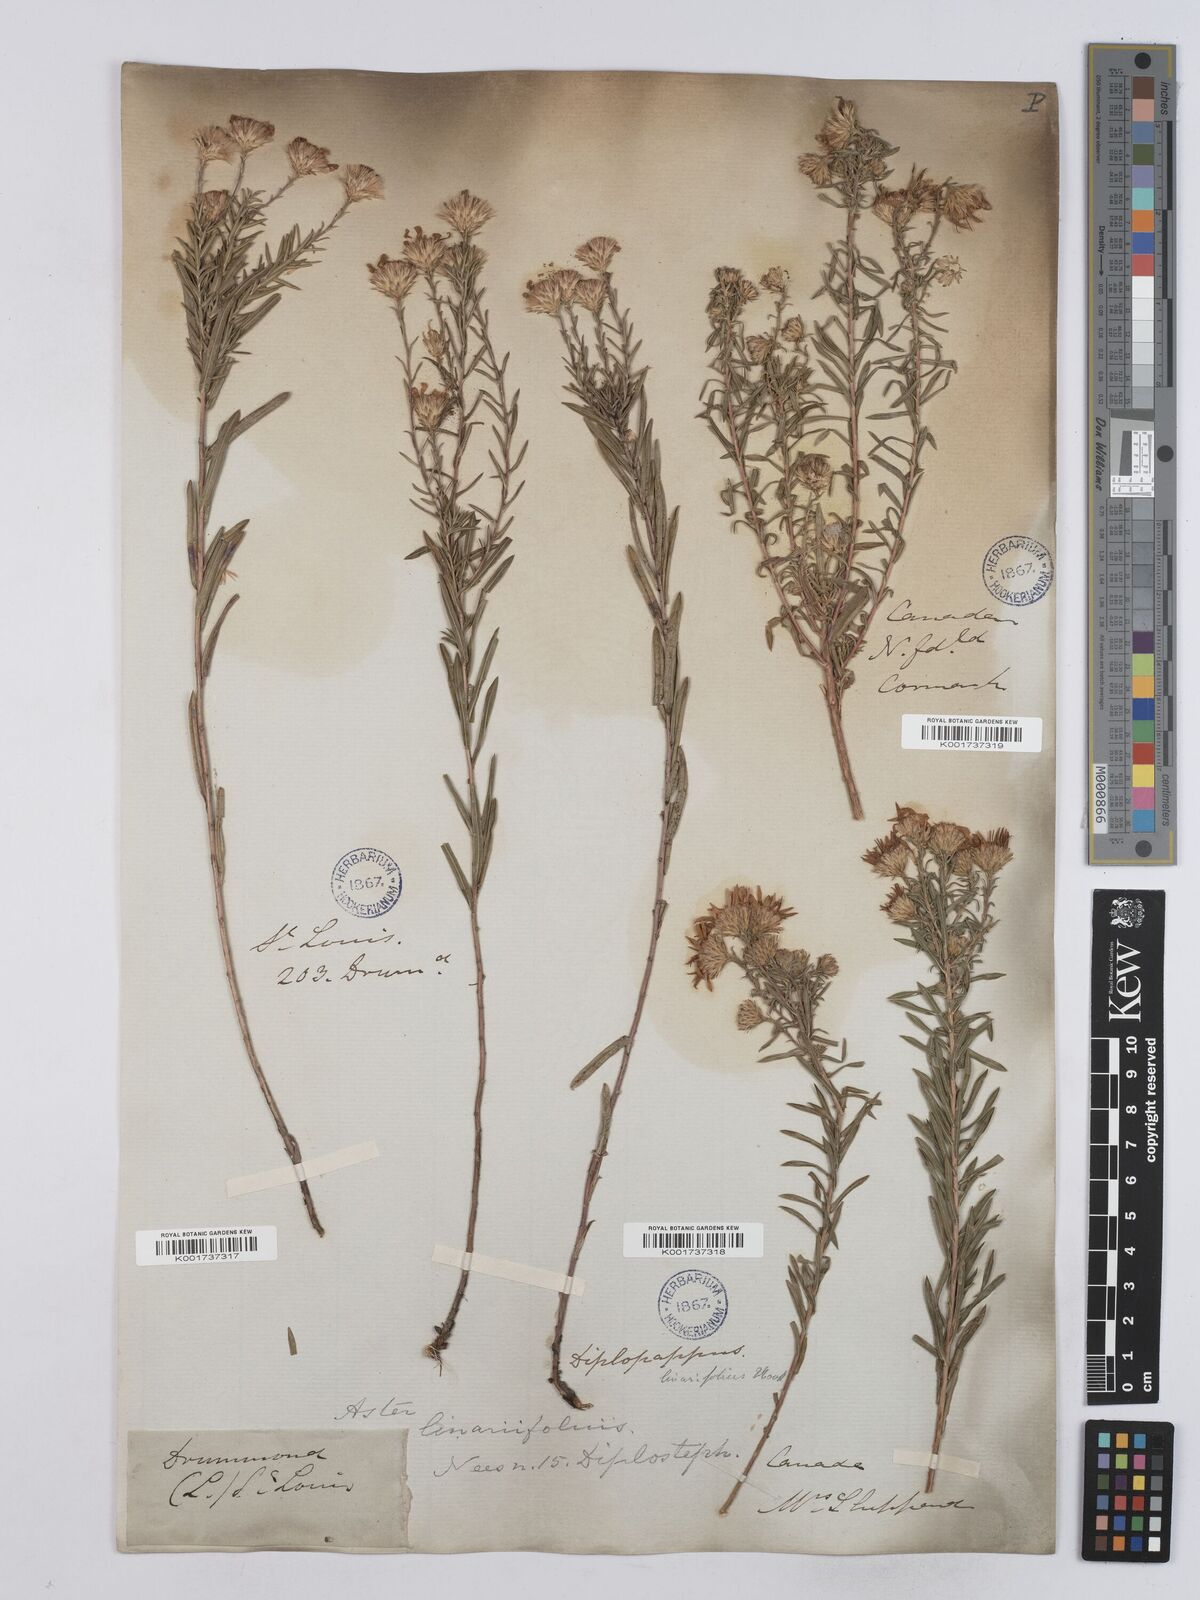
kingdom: Plantae
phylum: Tracheophyta
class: Magnoliopsida
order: Asterales
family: Asteraceae
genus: Ionactis
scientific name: Ionactis linariifolia
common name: Flax-leaf aster
